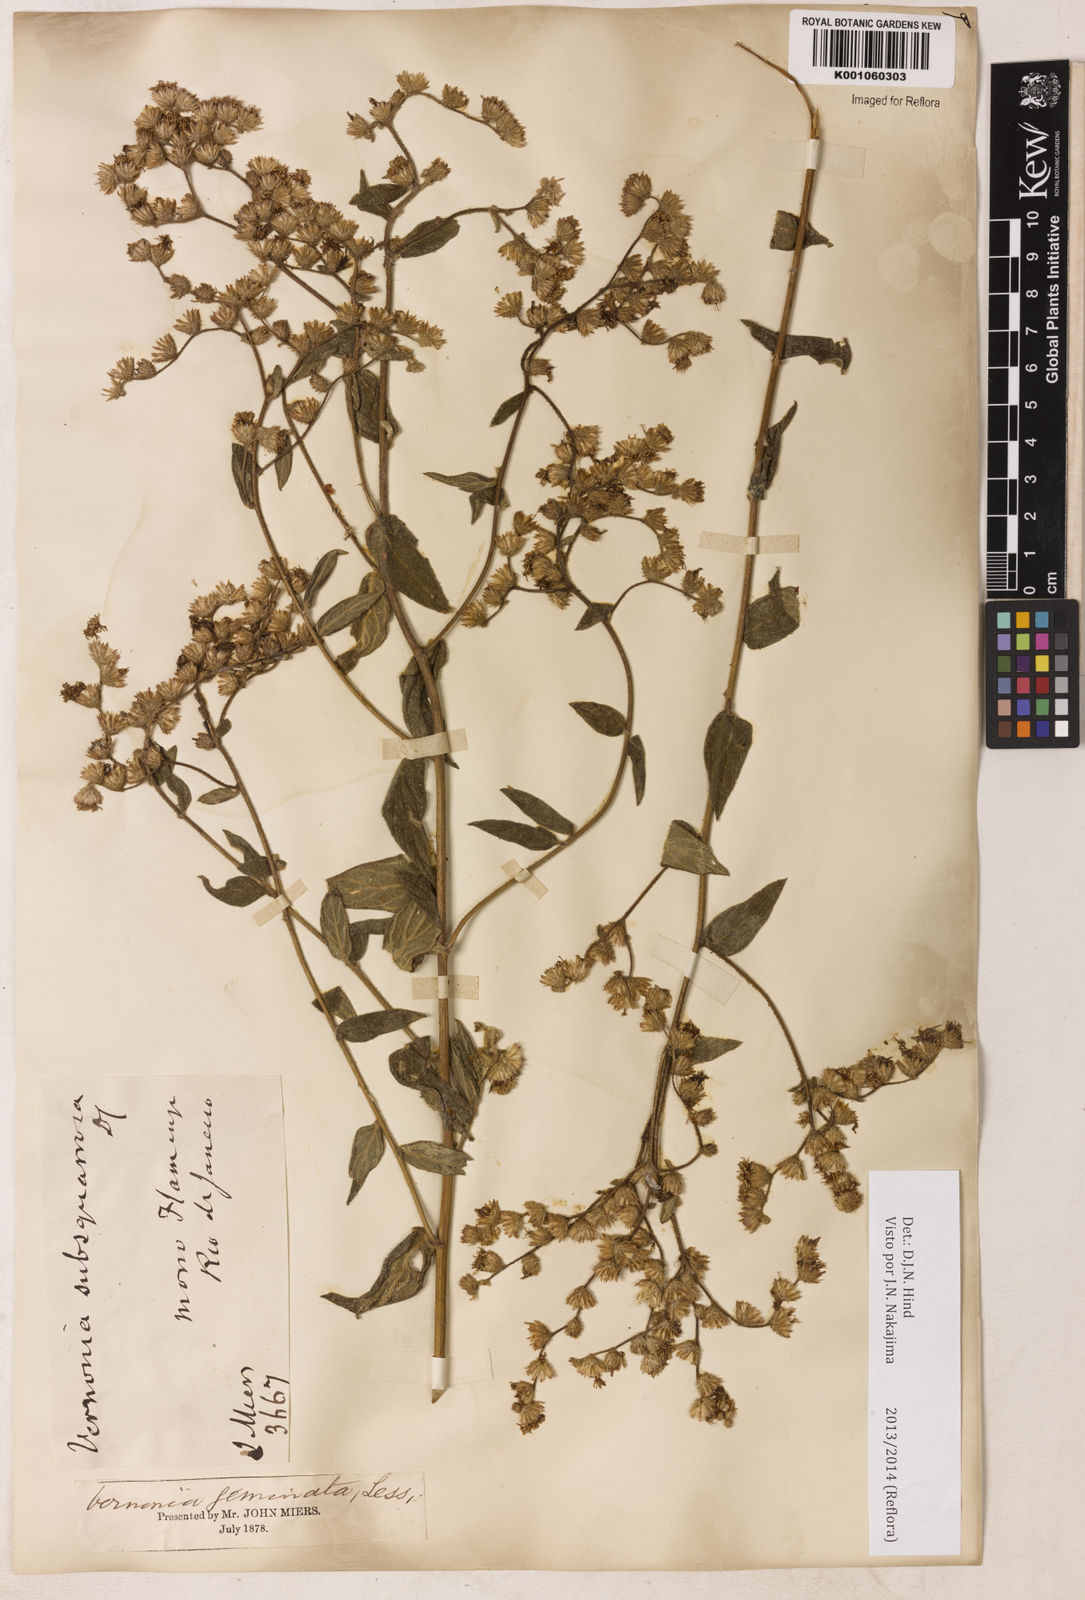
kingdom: Plantae
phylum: Tracheophyta
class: Magnoliopsida
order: Asterales
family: Asteraceae
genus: Lepidaploa
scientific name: Lepidaploa canescens
